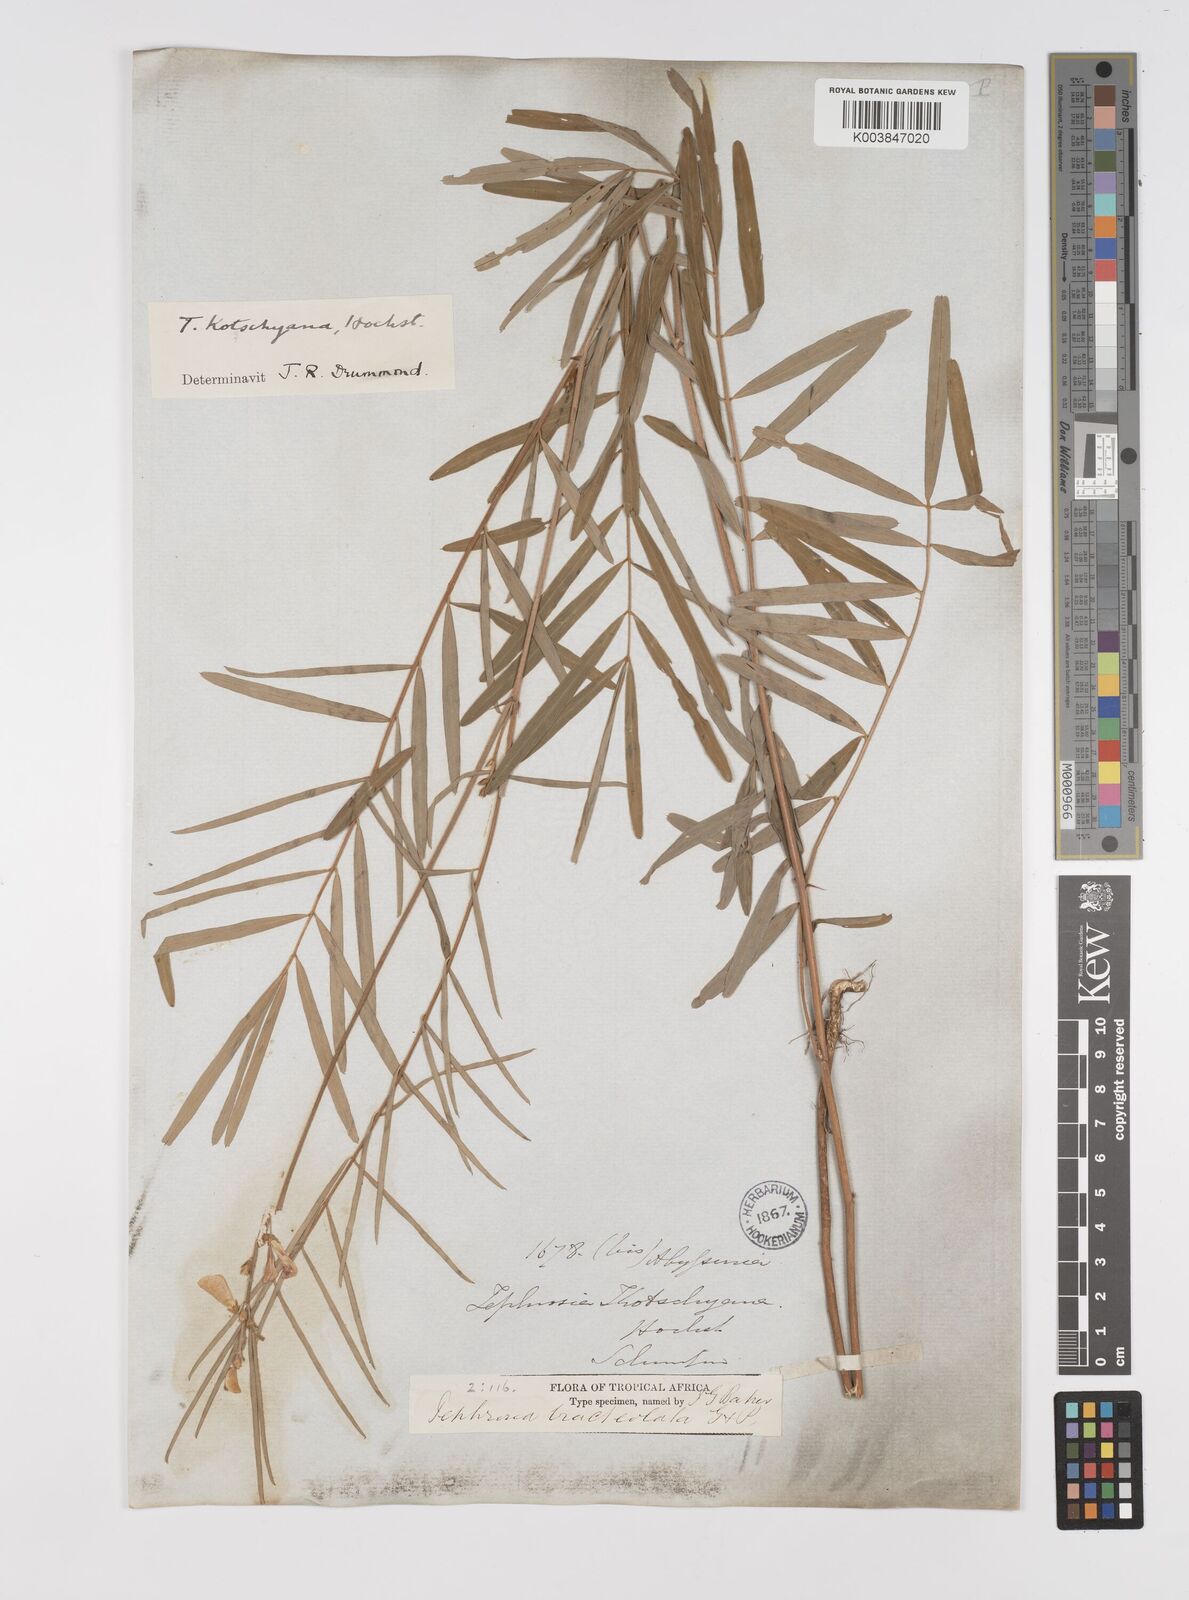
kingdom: Plantae
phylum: Tracheophyta
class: Magnoliopsida
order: Fabales
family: Fabaceae
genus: Tephrosia
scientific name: Tephrosia bracteolata
